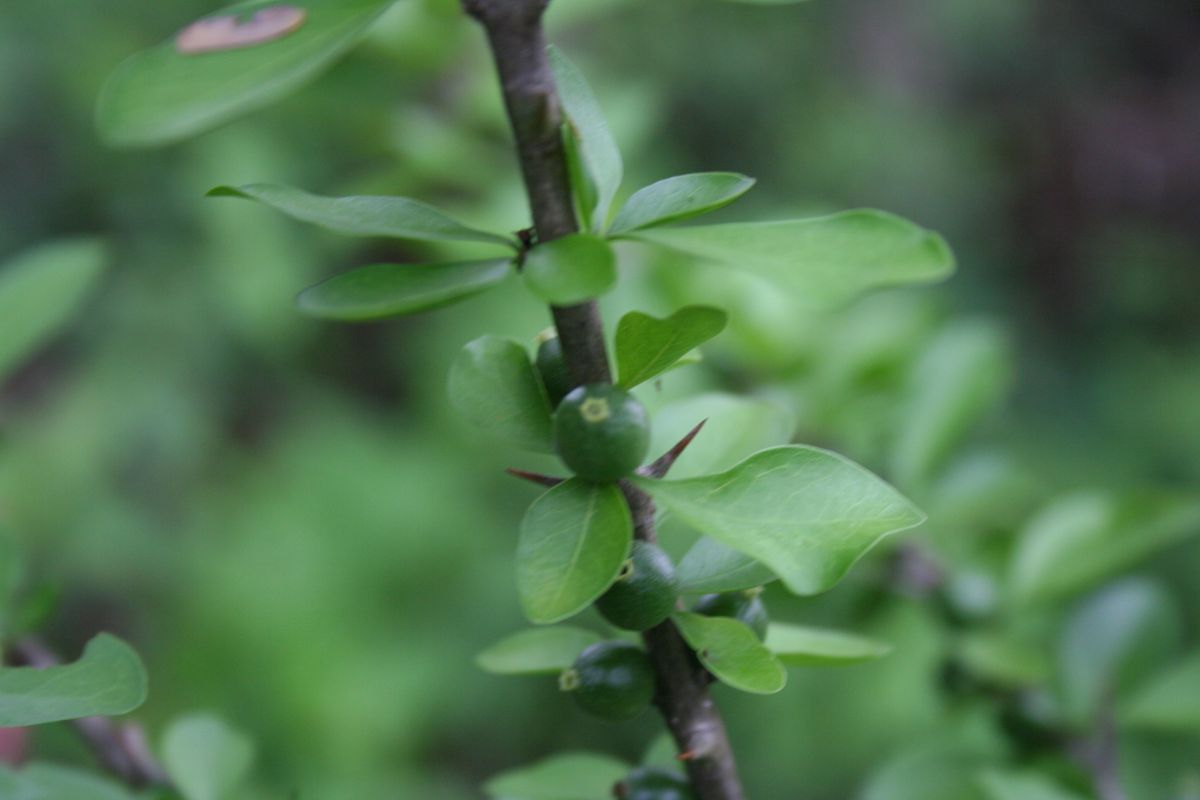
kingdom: Plantae
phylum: Tracheophyta
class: Magnoliopsida
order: Gentianales
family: Rubiaceae
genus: Randia
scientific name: Randia aculeata
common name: Inkberry
